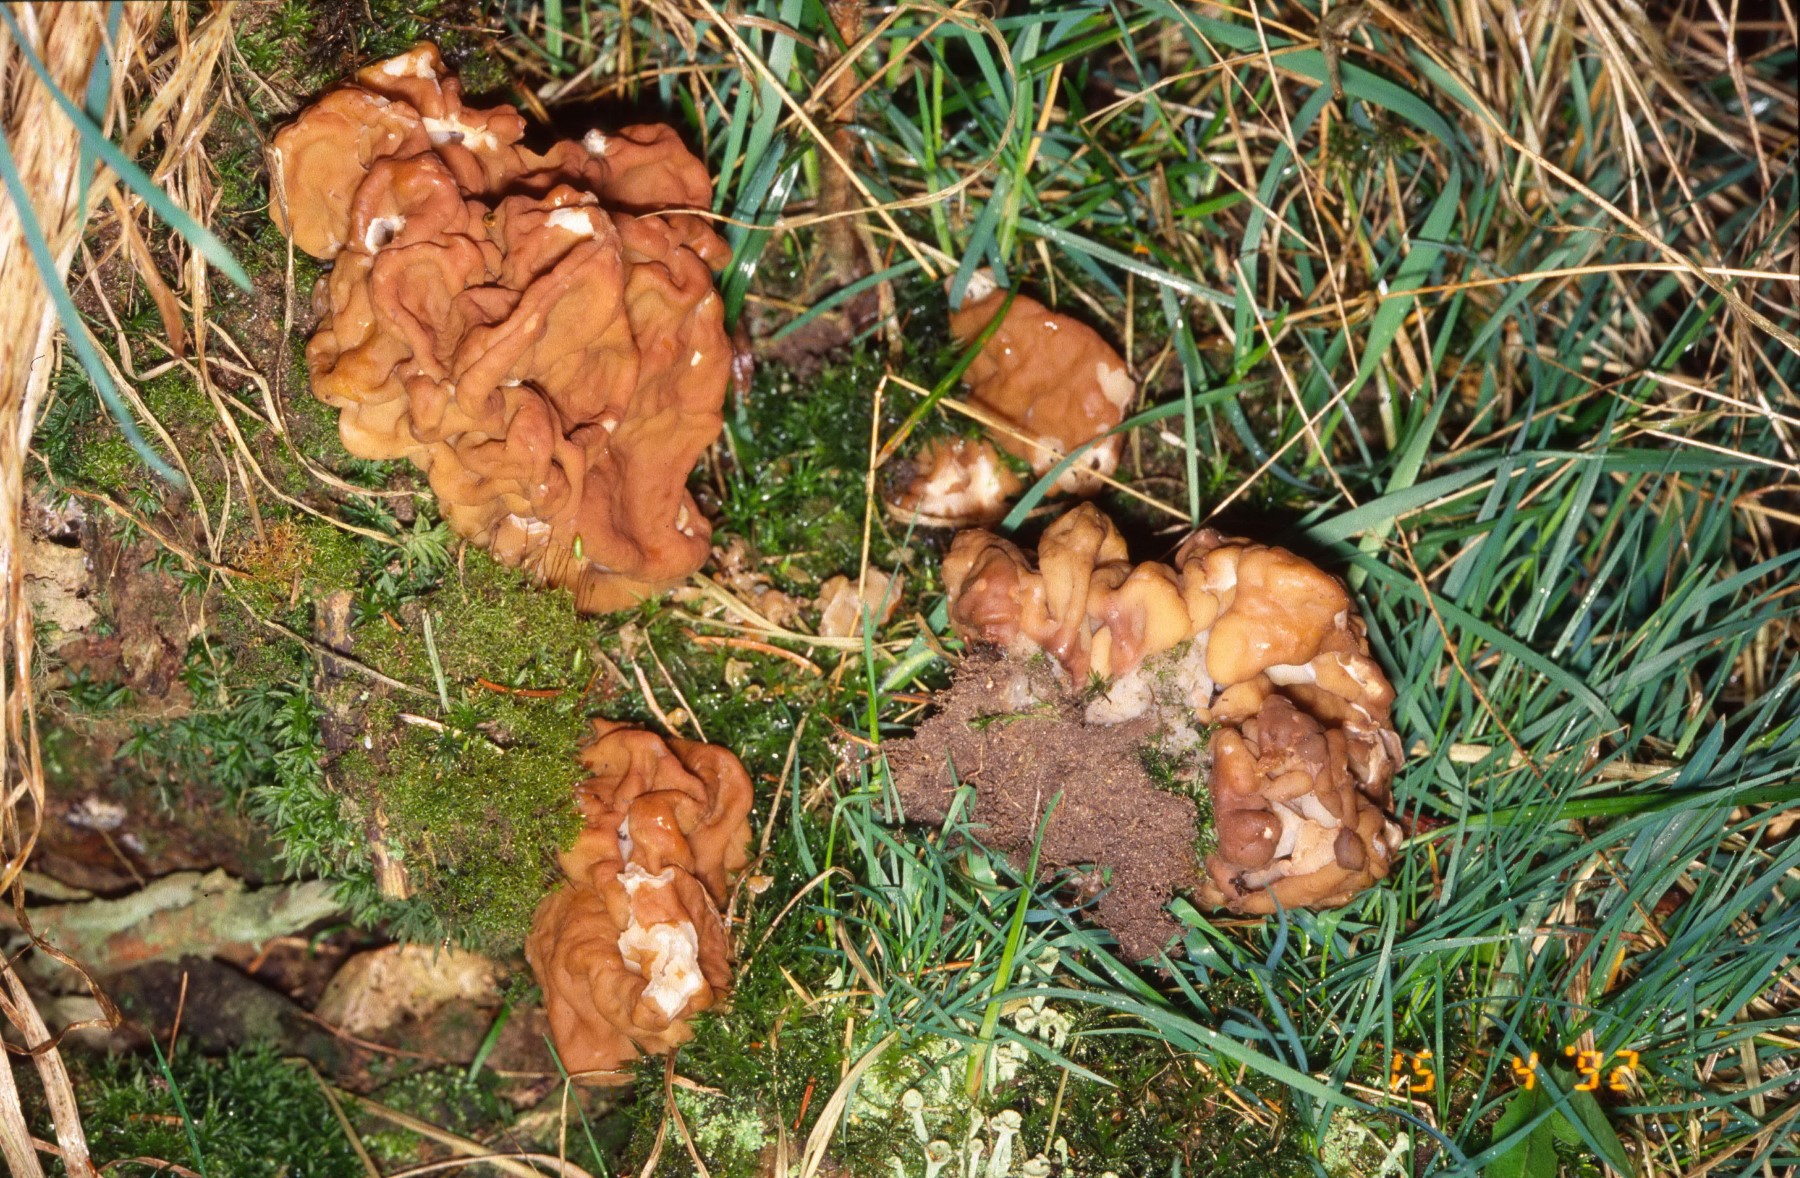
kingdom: Fungi
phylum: Ascomycota
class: Pezizomycetes
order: Pezizales
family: Discinaceae
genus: Gyromitra
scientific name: Gyromitra gigas
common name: kæmpe-stenmorkel
